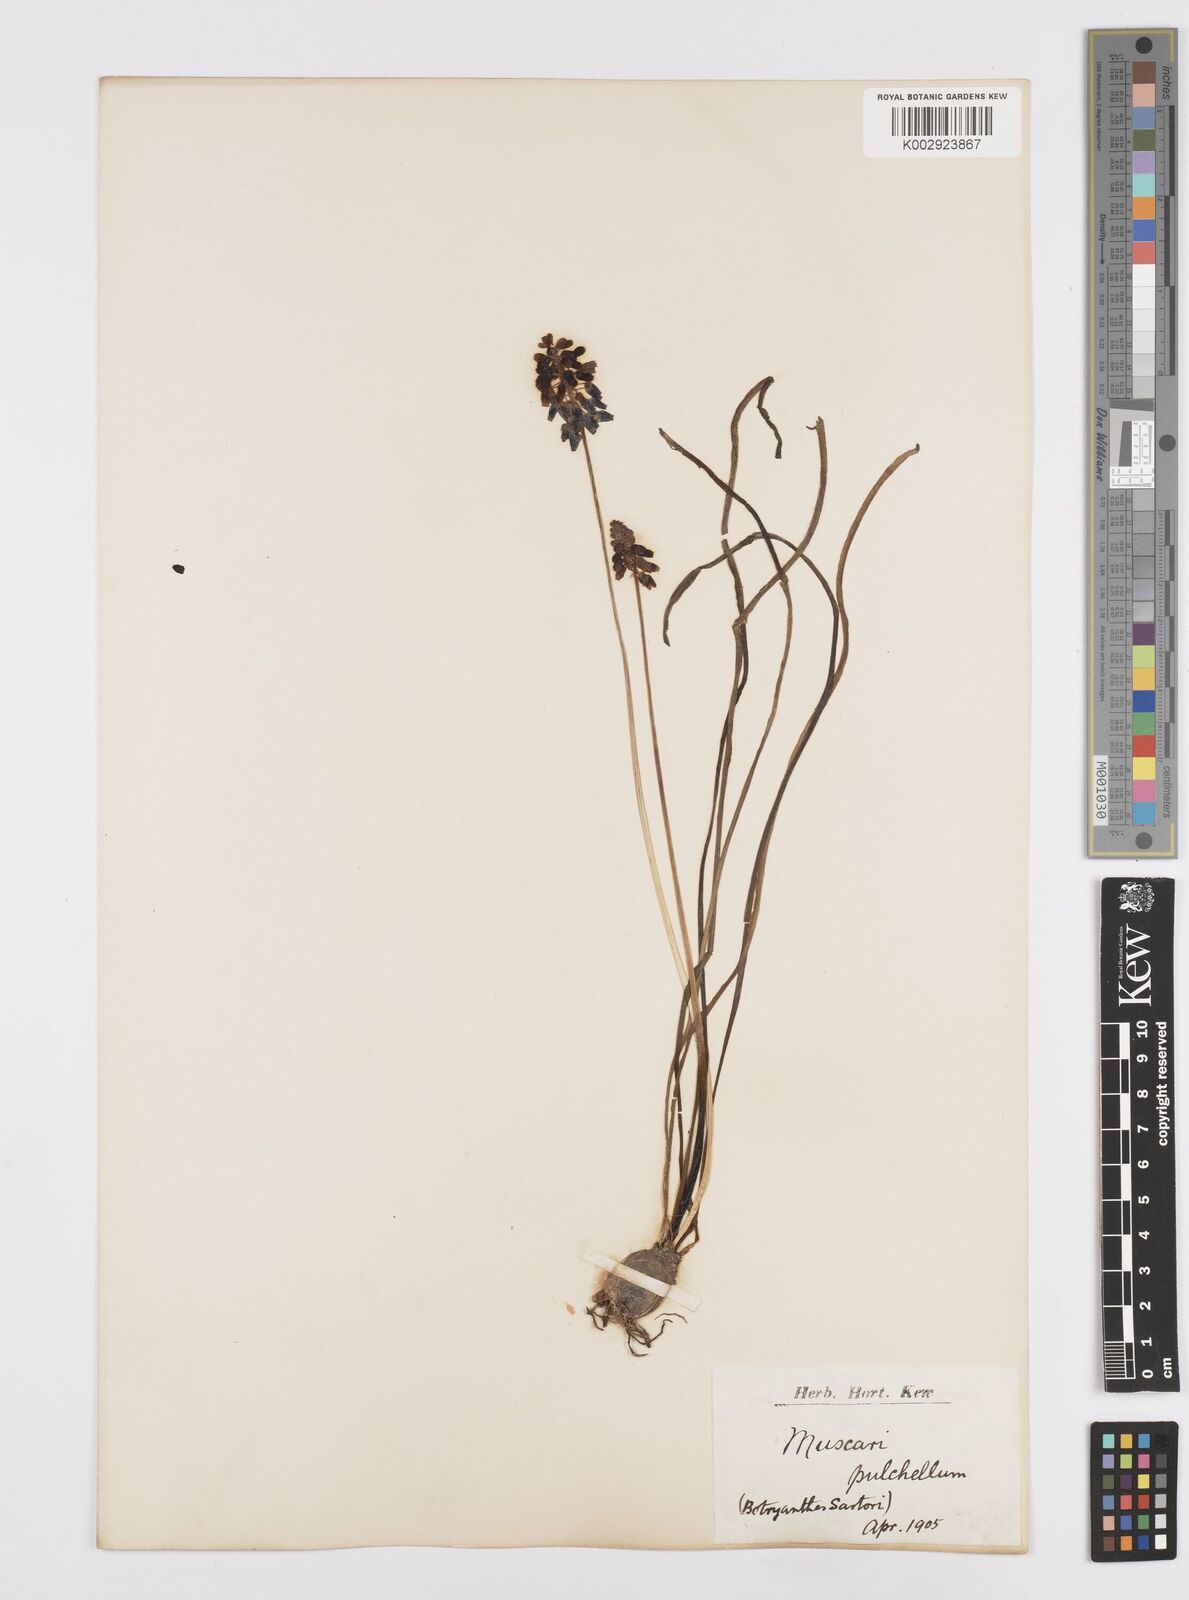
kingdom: Plantae
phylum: Tracheophyta
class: Liliopsida
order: Asparagales
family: Asparagaceae
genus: Muscari
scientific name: Muscari
